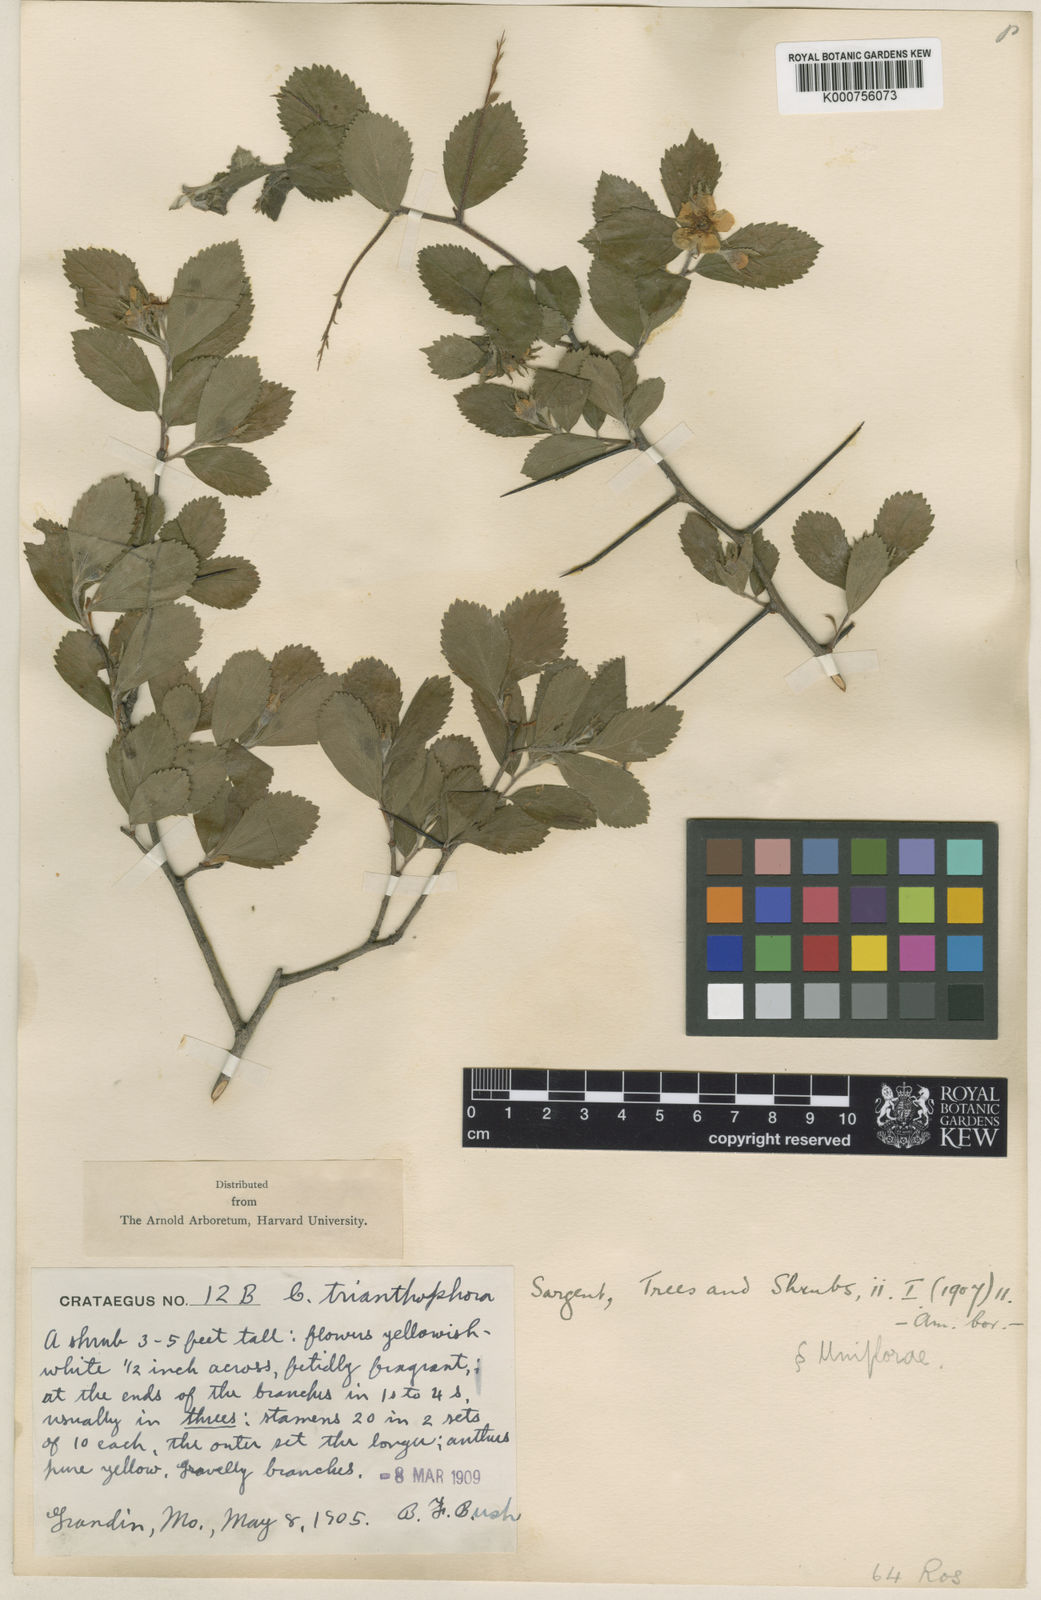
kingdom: Plantae
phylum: Tracheophyta
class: Magnoliopsida
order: Rosales
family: Rosaceae
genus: Crataegus
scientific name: Crataegus uniflora
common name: One-flower hawthorn
